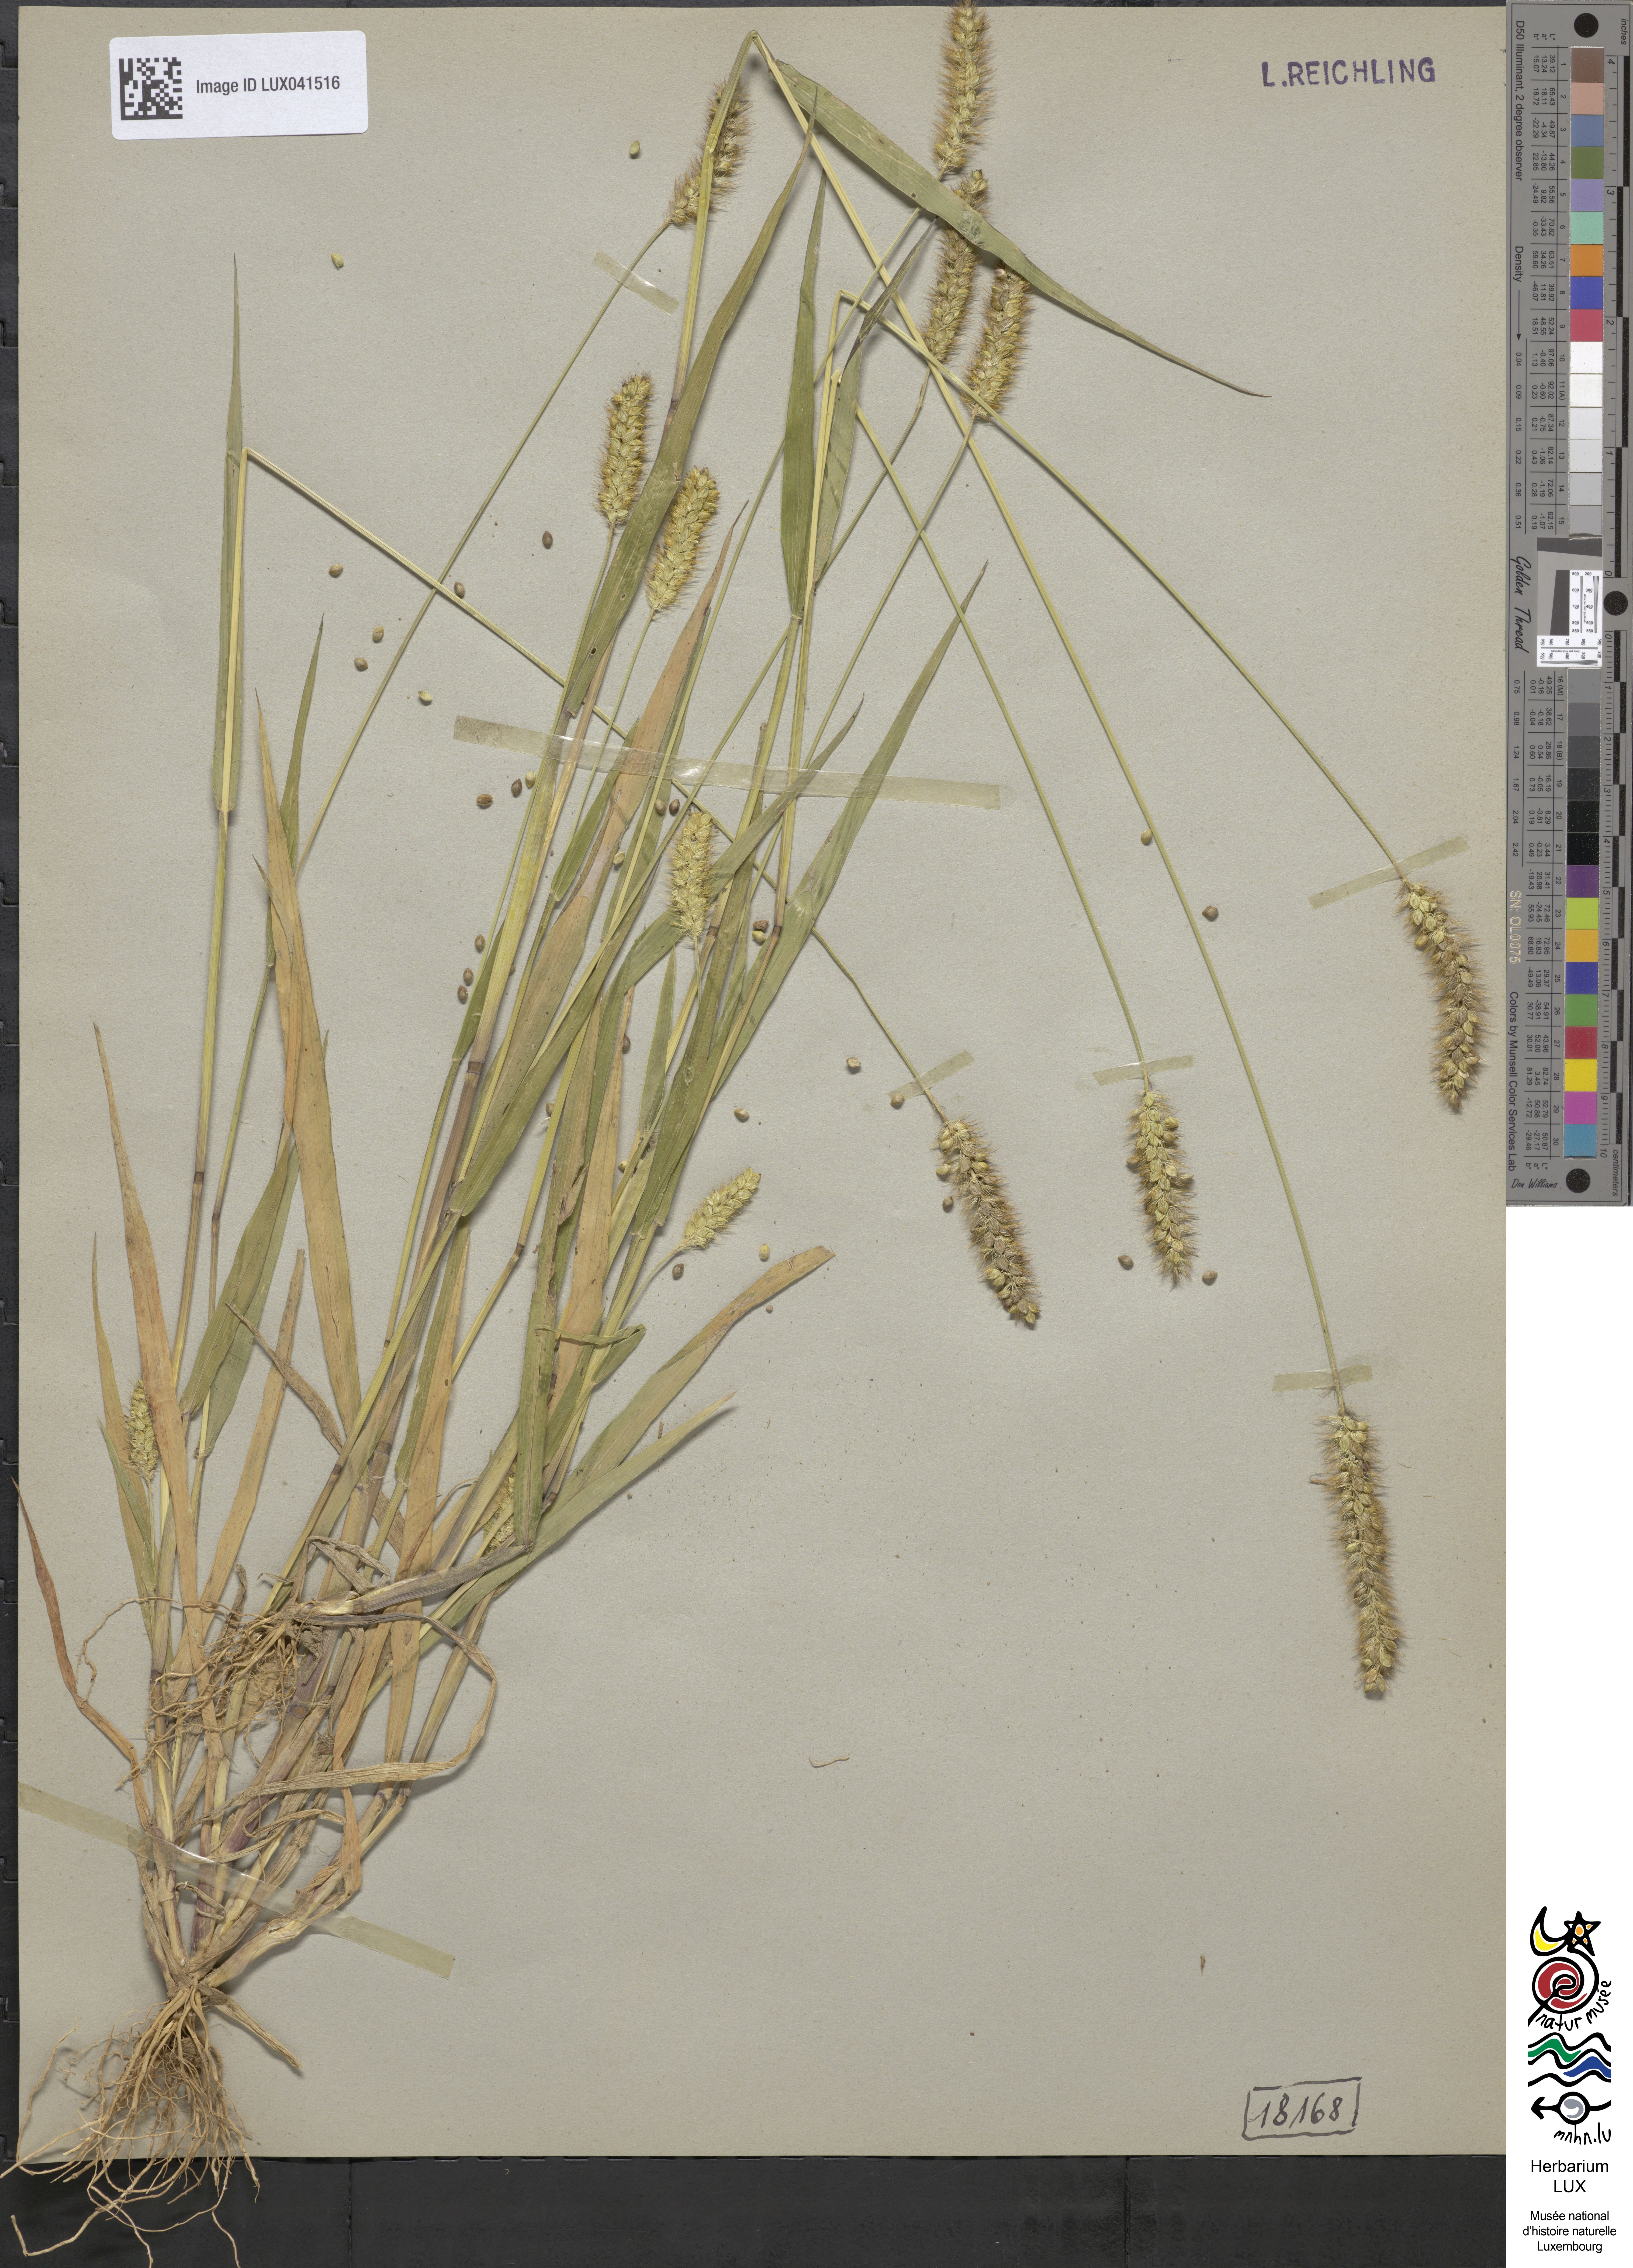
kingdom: Plantae
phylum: Tracheophyta
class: Liliopsida
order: Poales
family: Poaceae
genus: Cenchrus
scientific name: Cenchrus americanus
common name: Pearl millet
